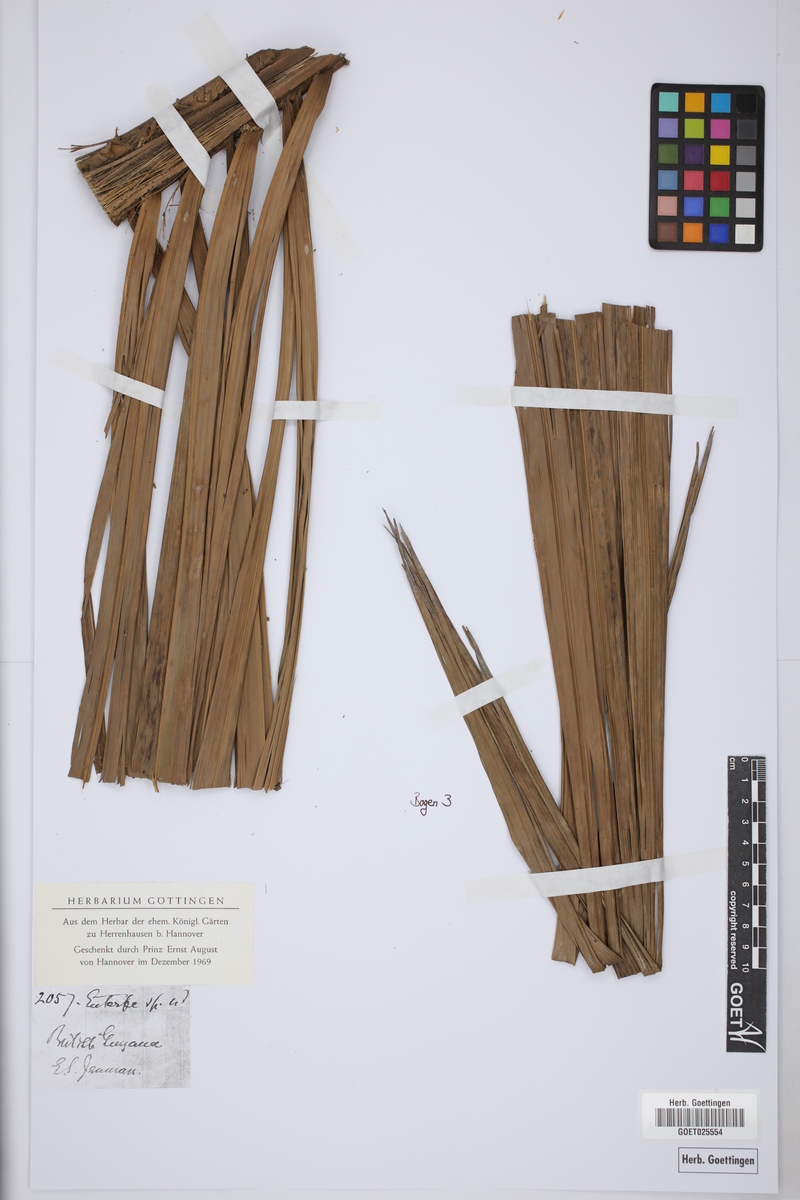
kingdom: Plantae
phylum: Tracheophyta
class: Liliopsida
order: Arecales
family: Arecaceae
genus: Roystonea
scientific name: Roystonea regia
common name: Florida royal palm
